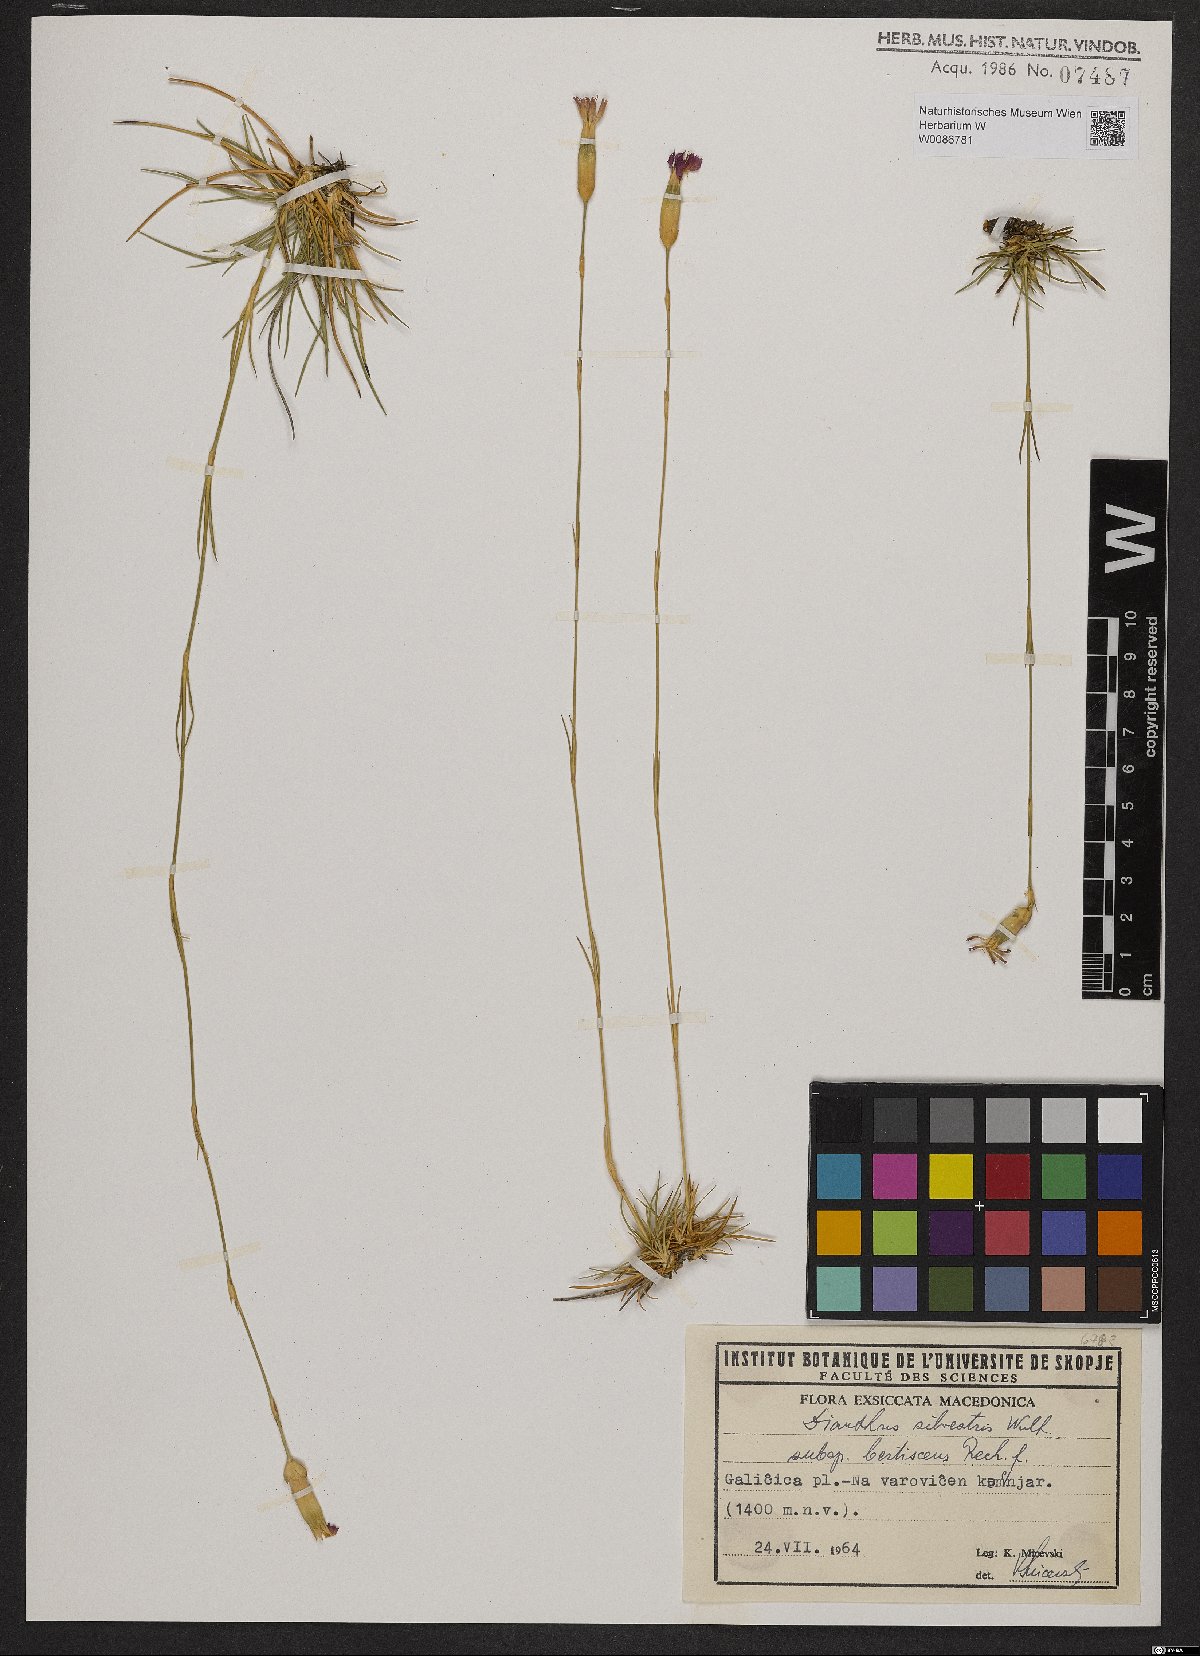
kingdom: Plantae
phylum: Tracheophyta
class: Magnoliopsida
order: Caryophyllales
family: Caryophyllaceae
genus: Dianthus
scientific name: Dianthus tarentinus
